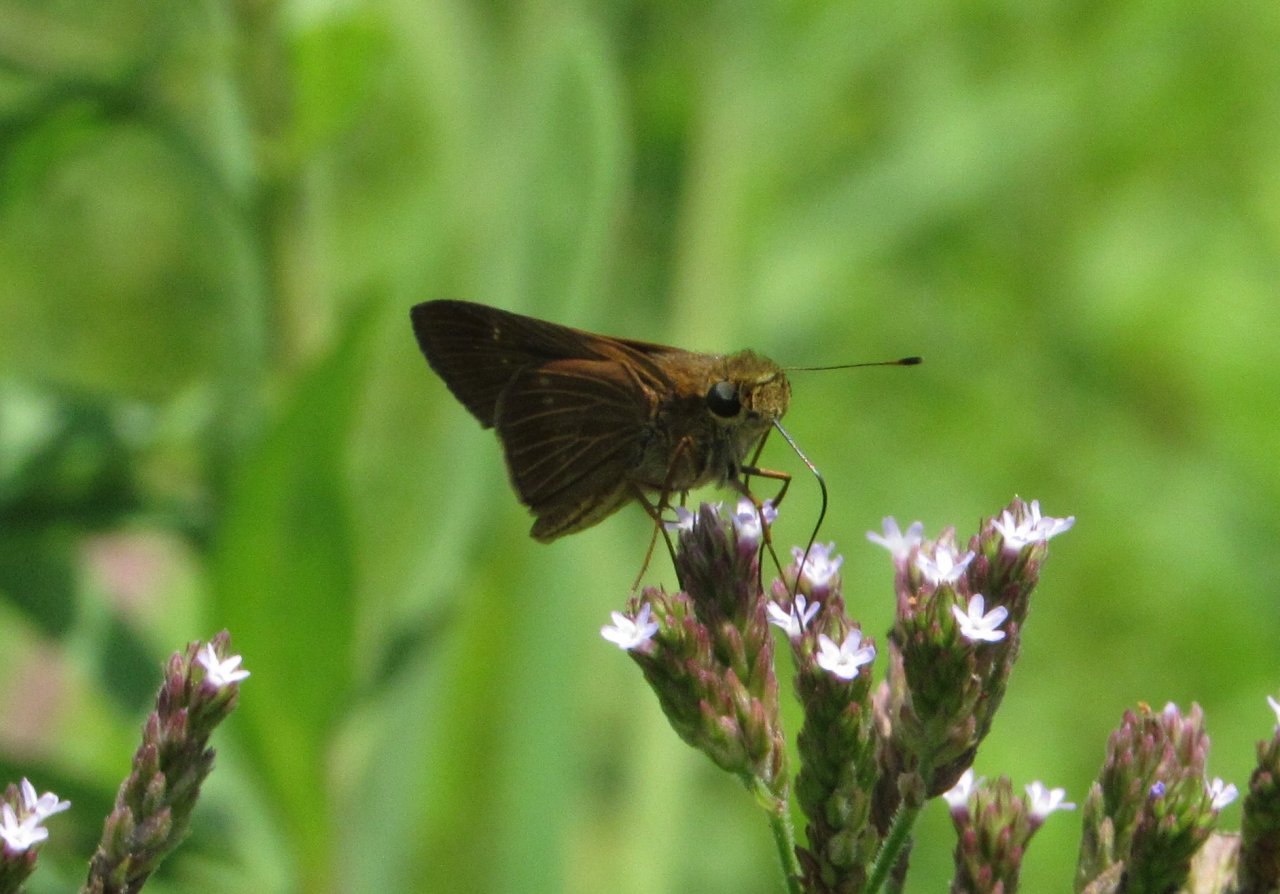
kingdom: Animalia
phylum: Arthropoda
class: Insecta
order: Lepidoptera
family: Hesperiidae
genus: Panoquina
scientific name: Panoquina ocola
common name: Ocola Skipper
